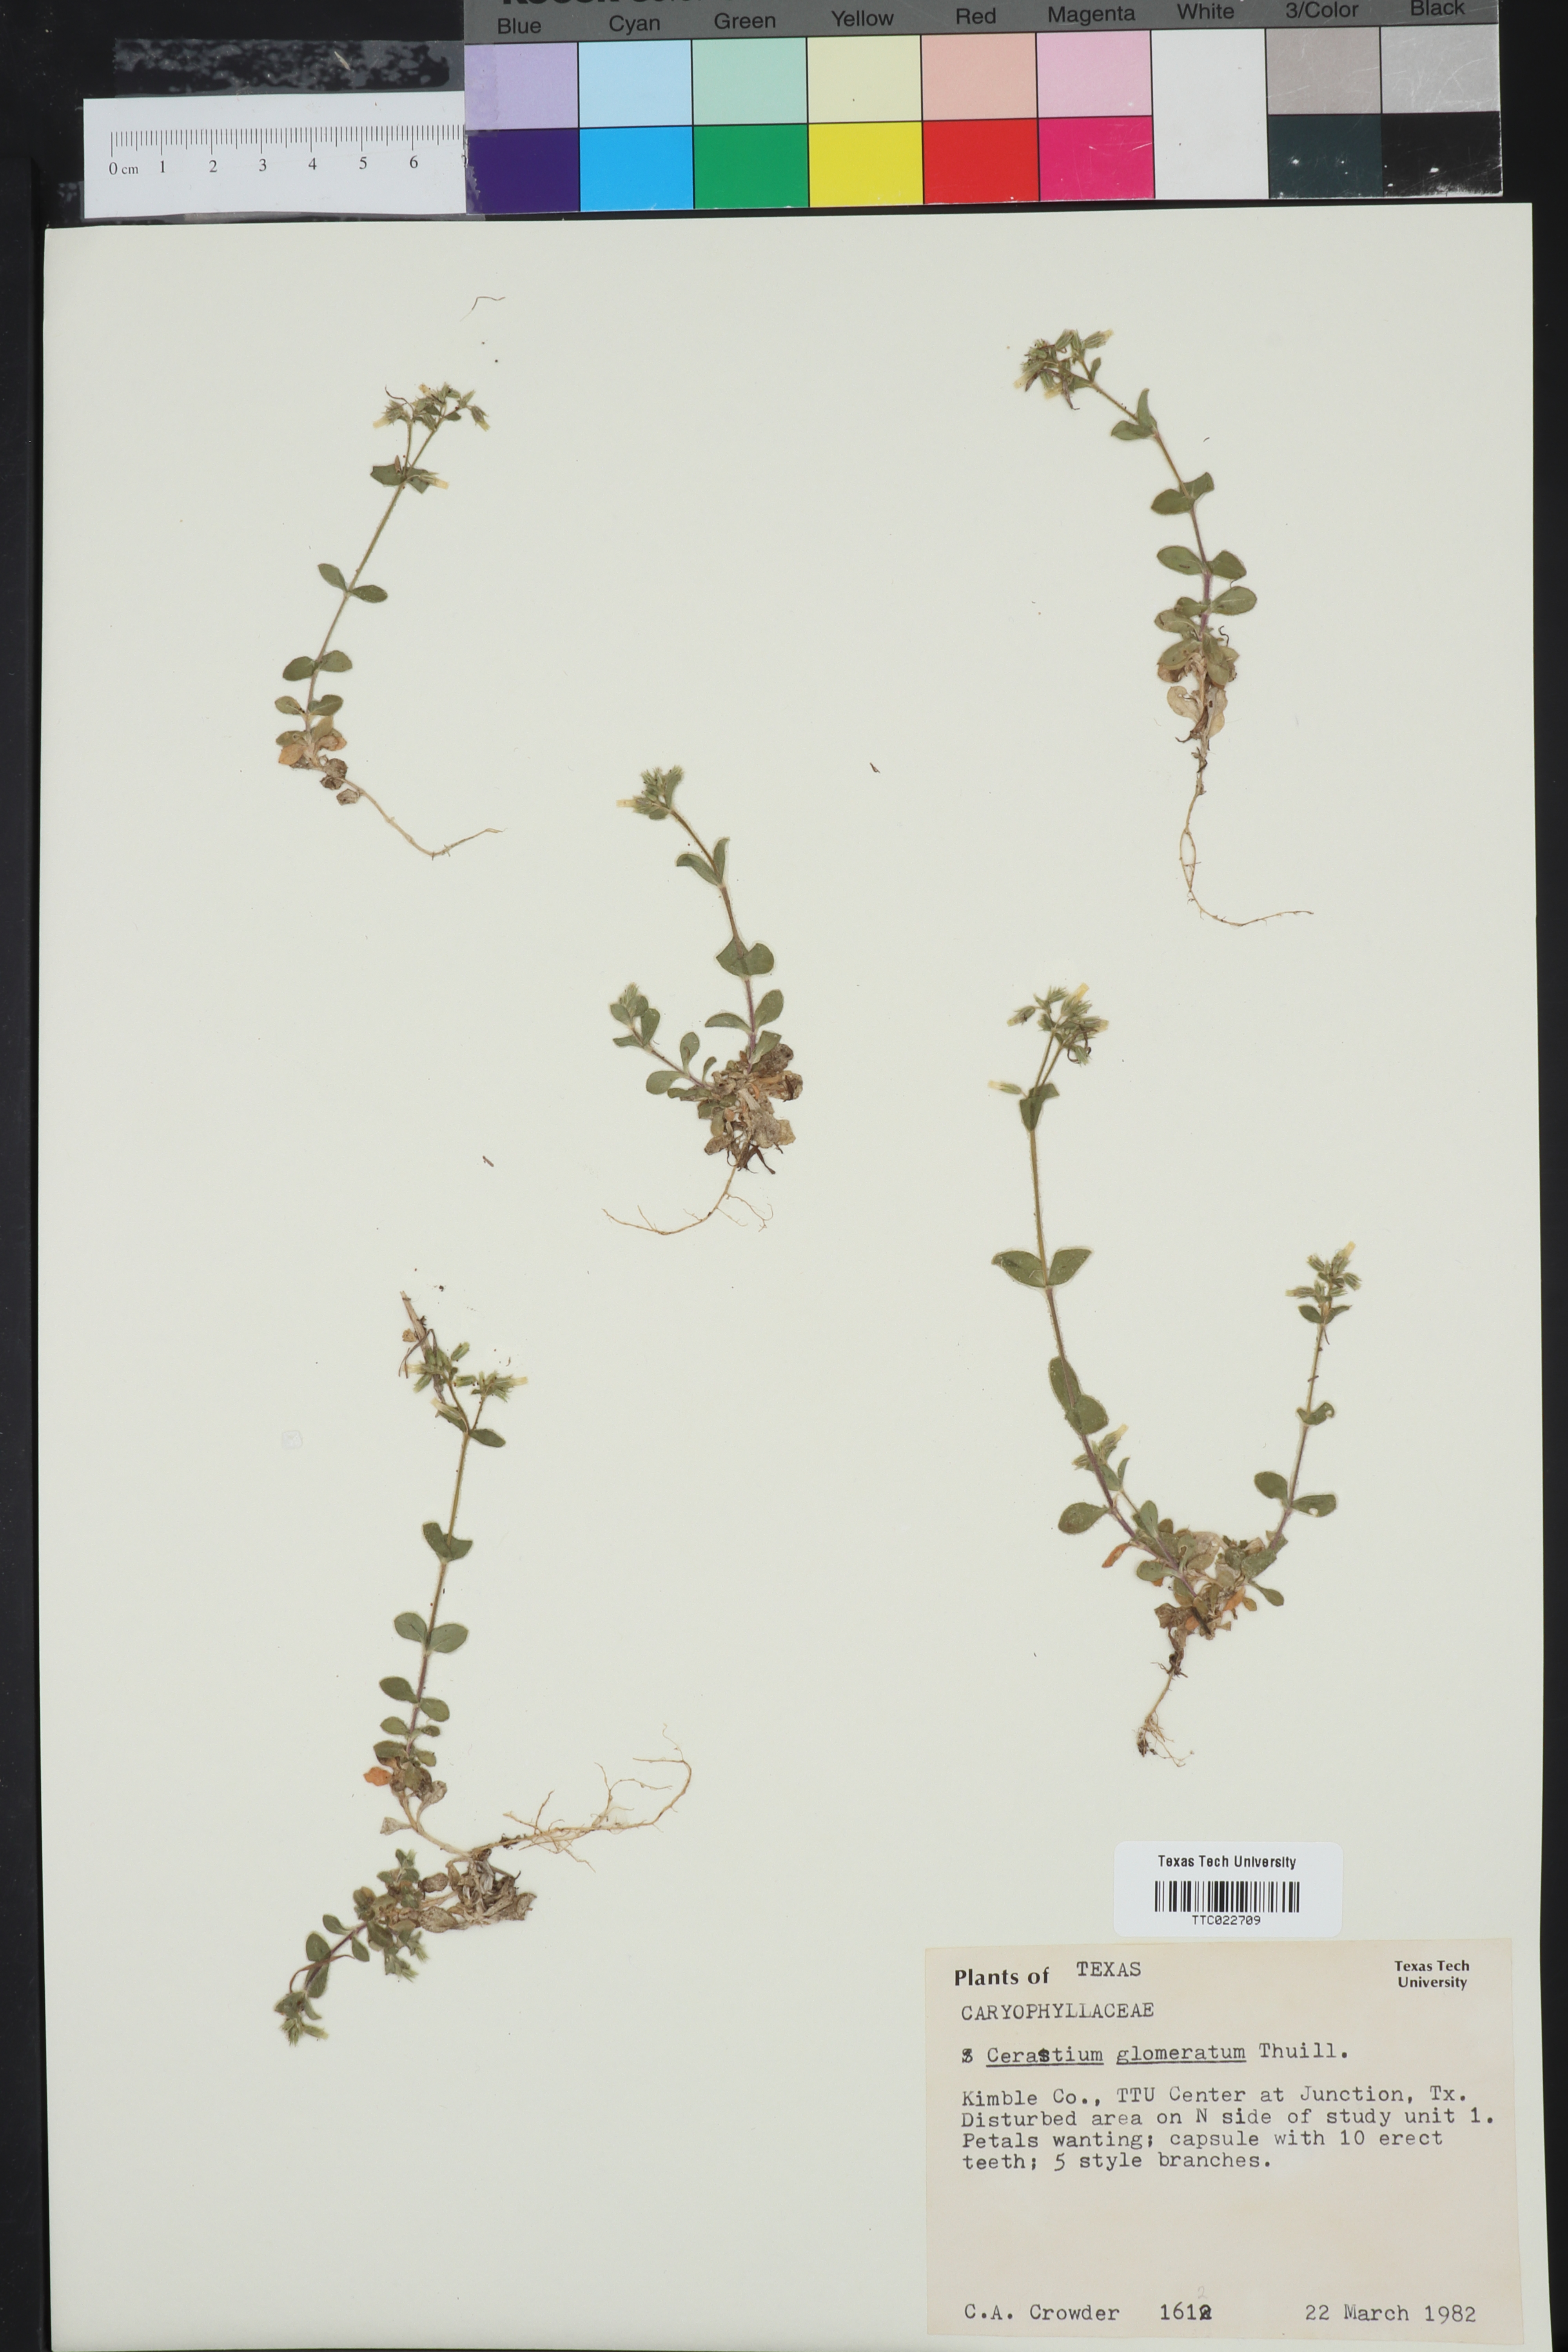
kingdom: Plantae
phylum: Tracheophyta
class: Magnoliopsida
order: Caryophyllales
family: Caryophyllaceae
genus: Cerastium
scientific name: Cerastium glomeratum
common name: Sticky chickweed
